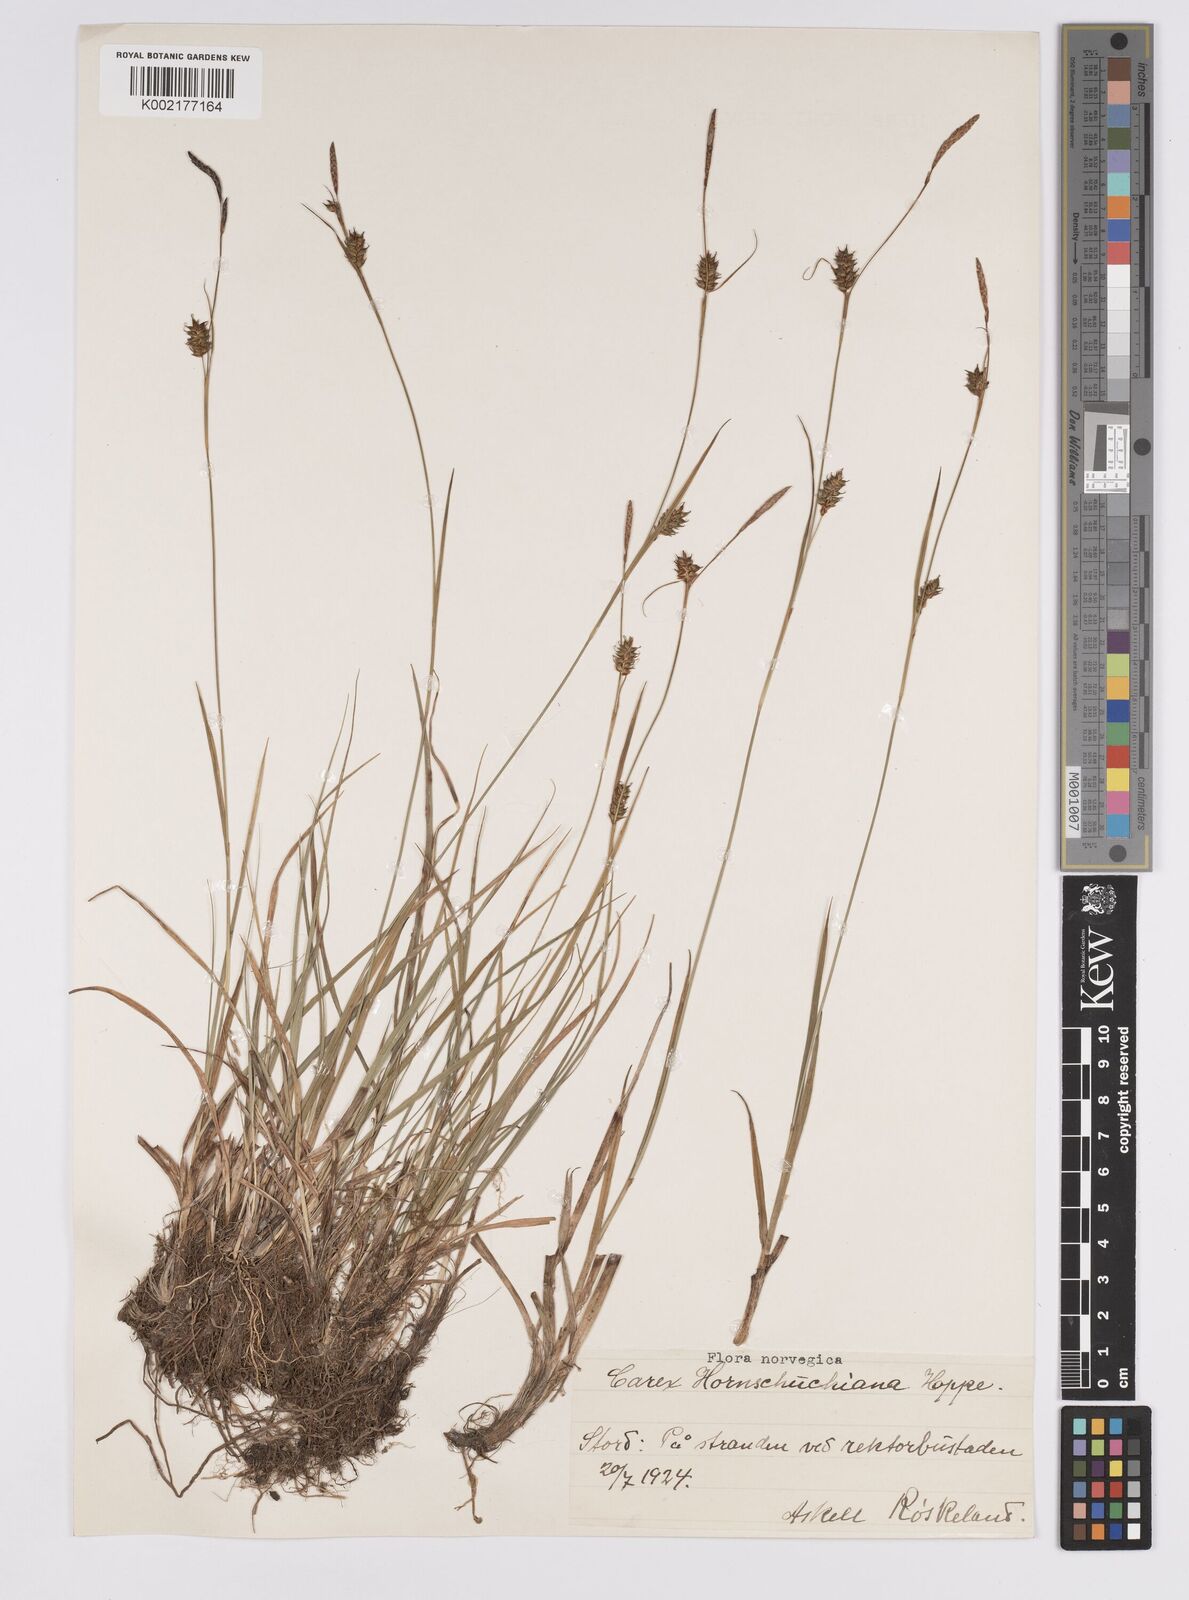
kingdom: Plantae
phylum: Tracheophyta
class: Liliopsida
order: Poales
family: Cyperaceae
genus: Carex
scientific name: Carex hostiana
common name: Tawny sedge
